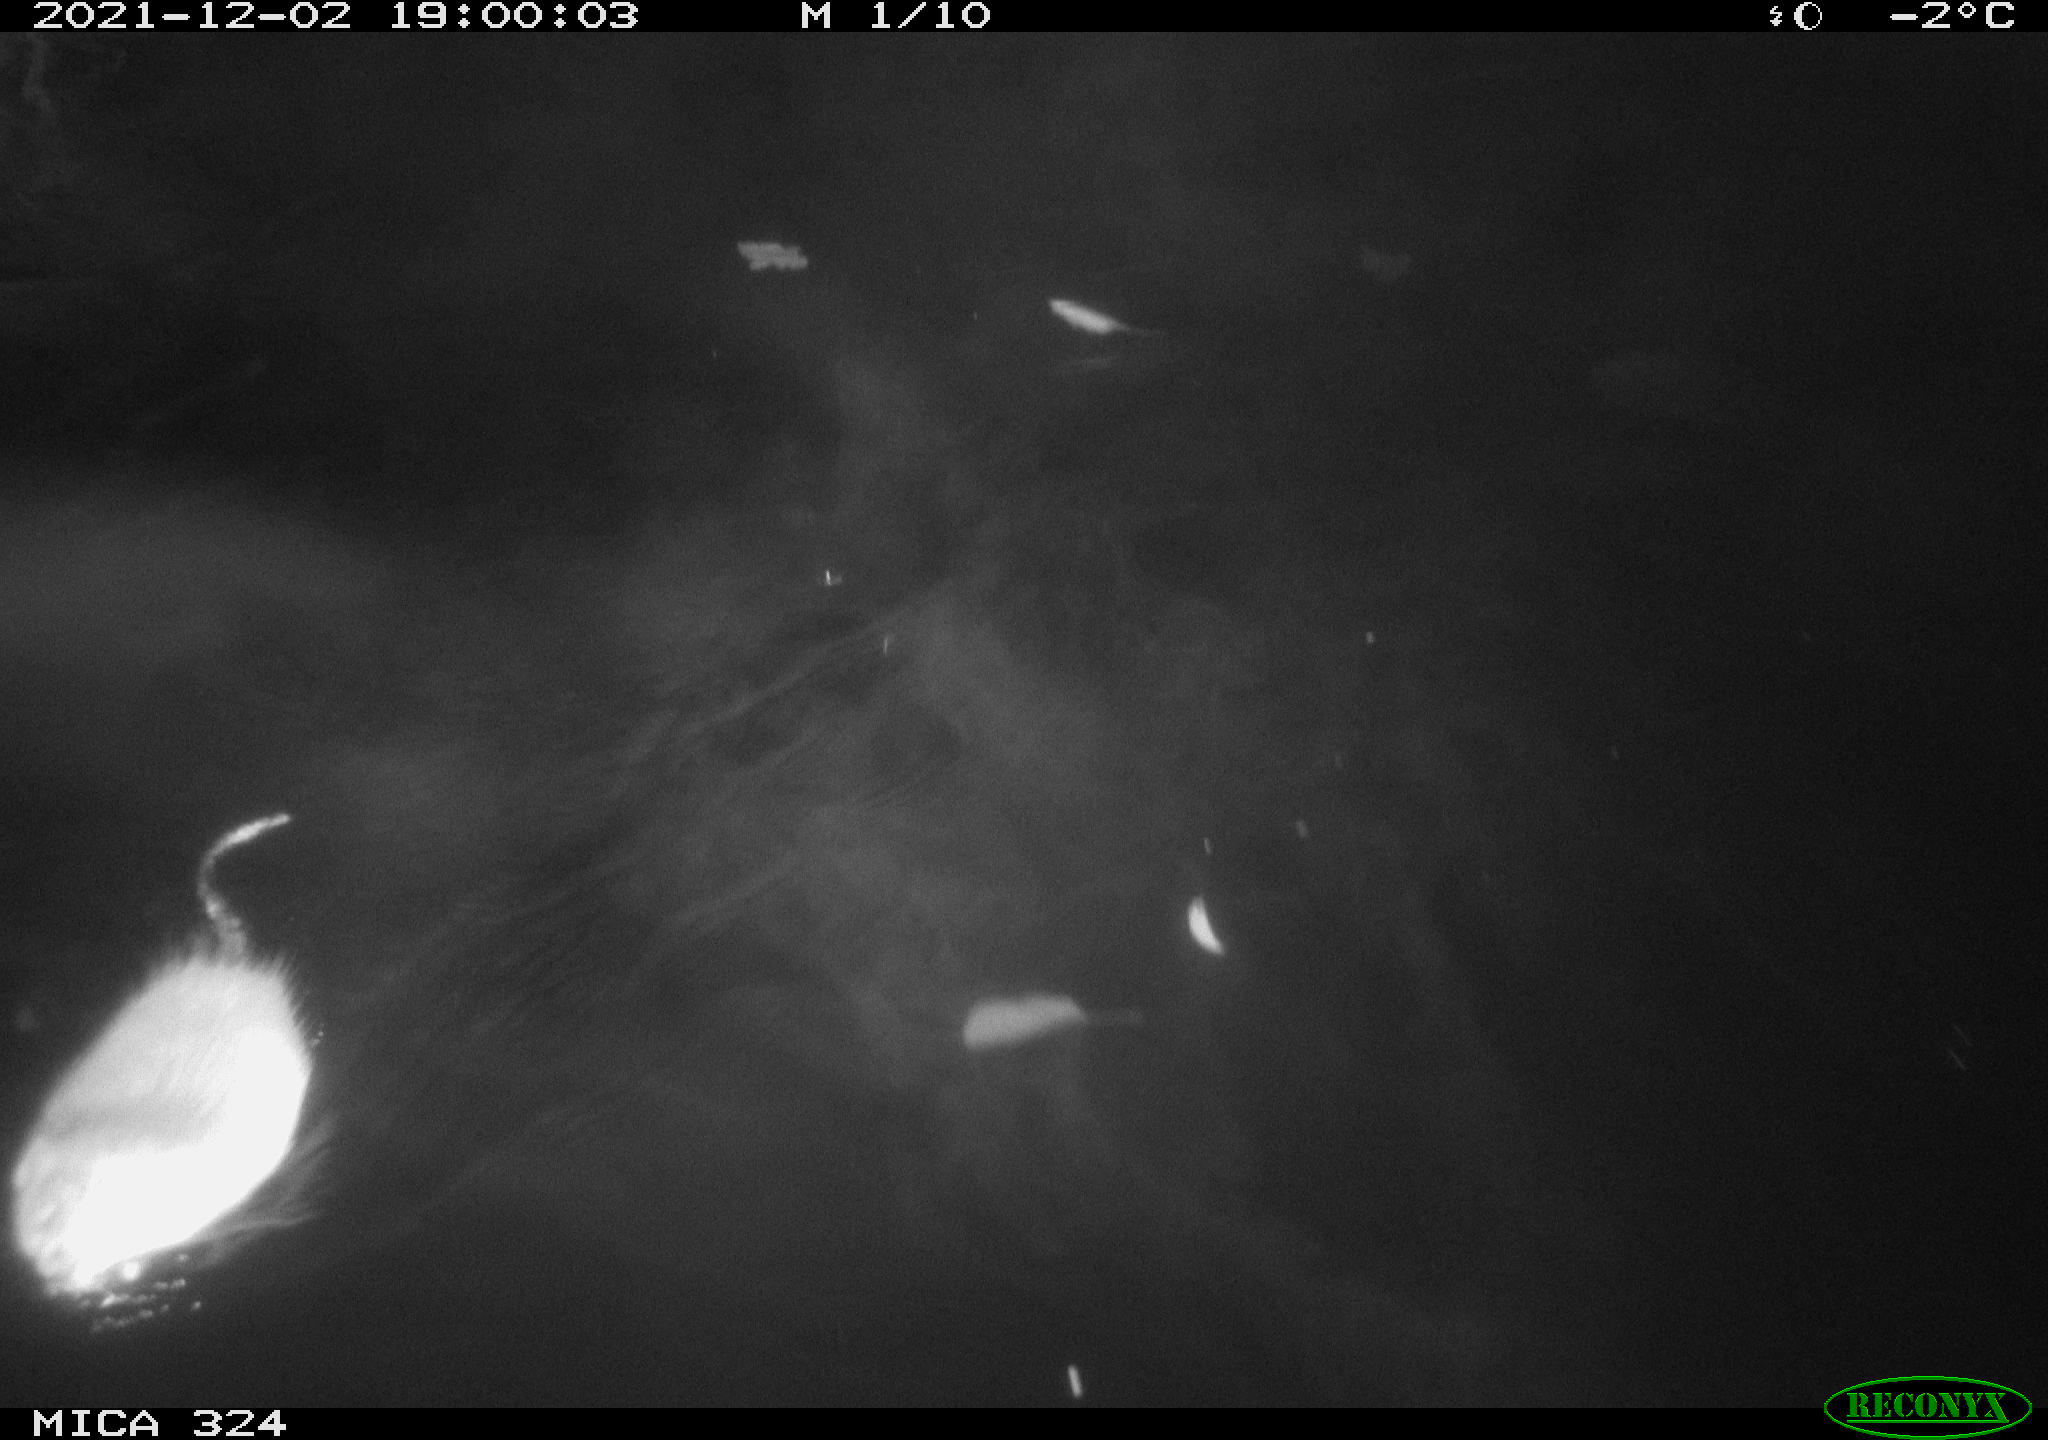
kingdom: Animalia
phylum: Chordata
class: Mammalia
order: Rodentia
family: Cricetidae
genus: Ondatra
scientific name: Ondatra zibethicus
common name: Muskrat
